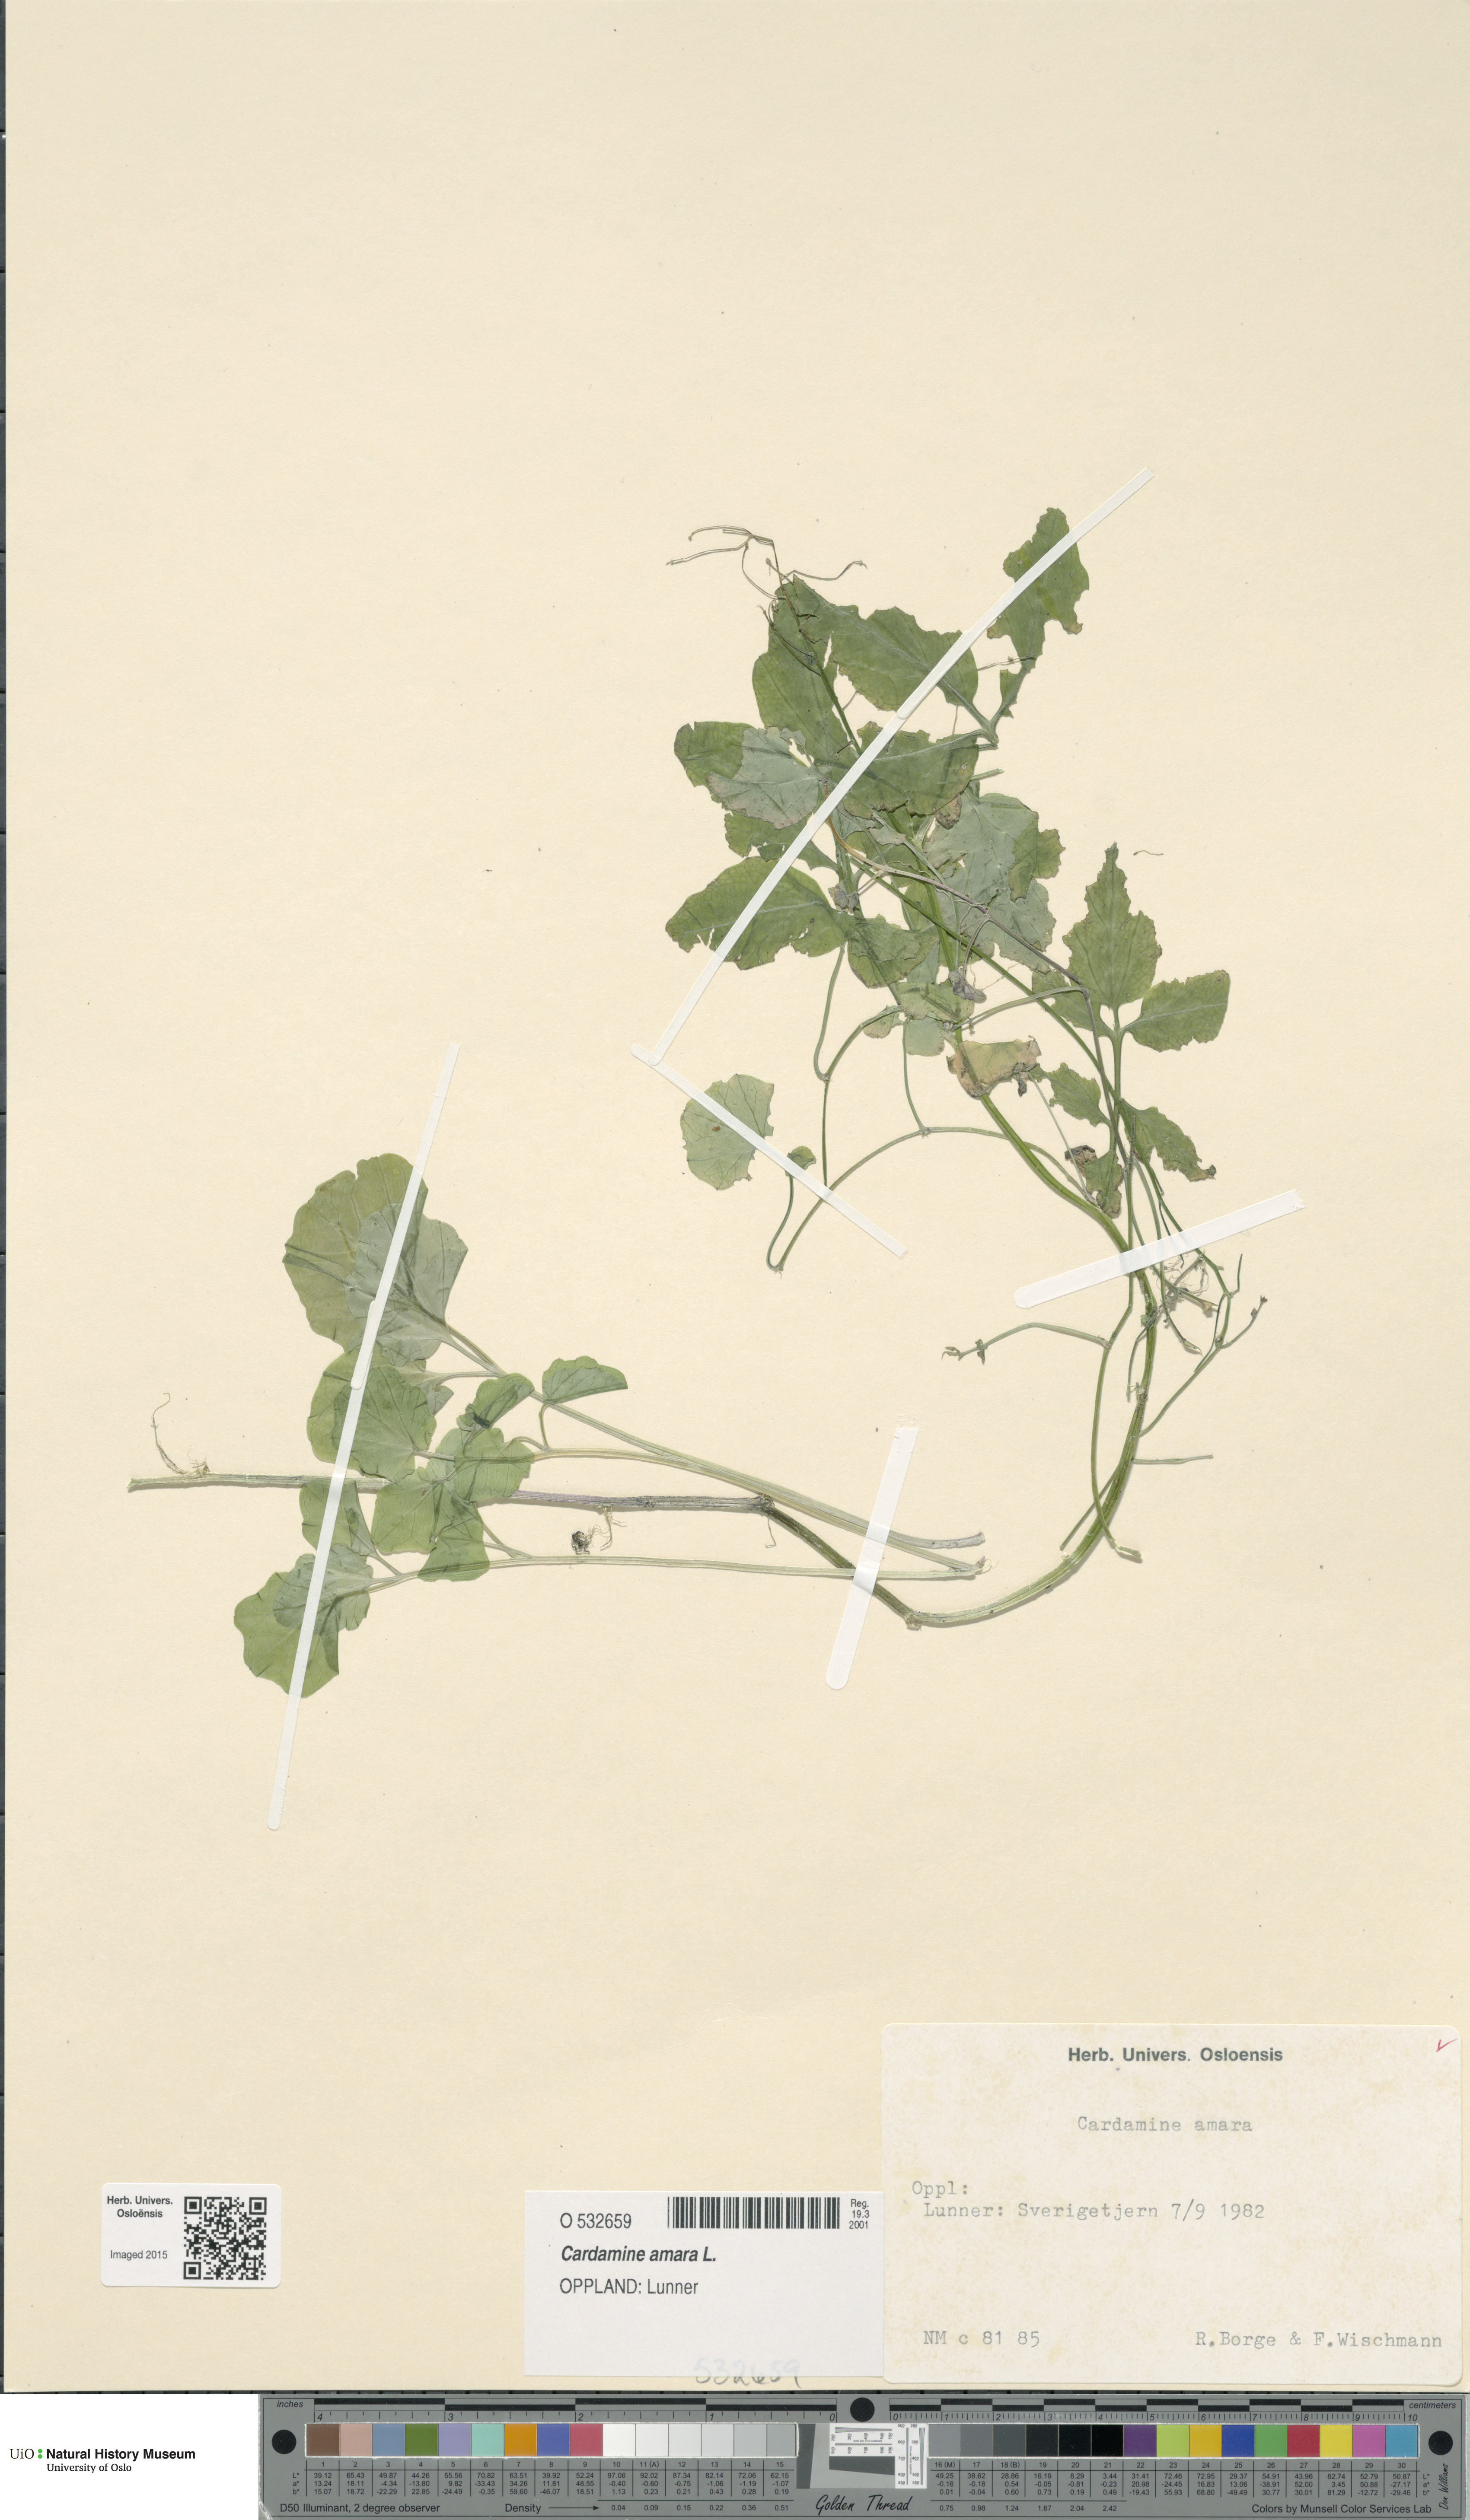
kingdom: Plantae
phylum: Tracheophyta
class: Magnoliopsida
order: Brassicales
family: Brassicaceae
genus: Cardamine
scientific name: Cardamine amara
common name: Large bitter-cress
